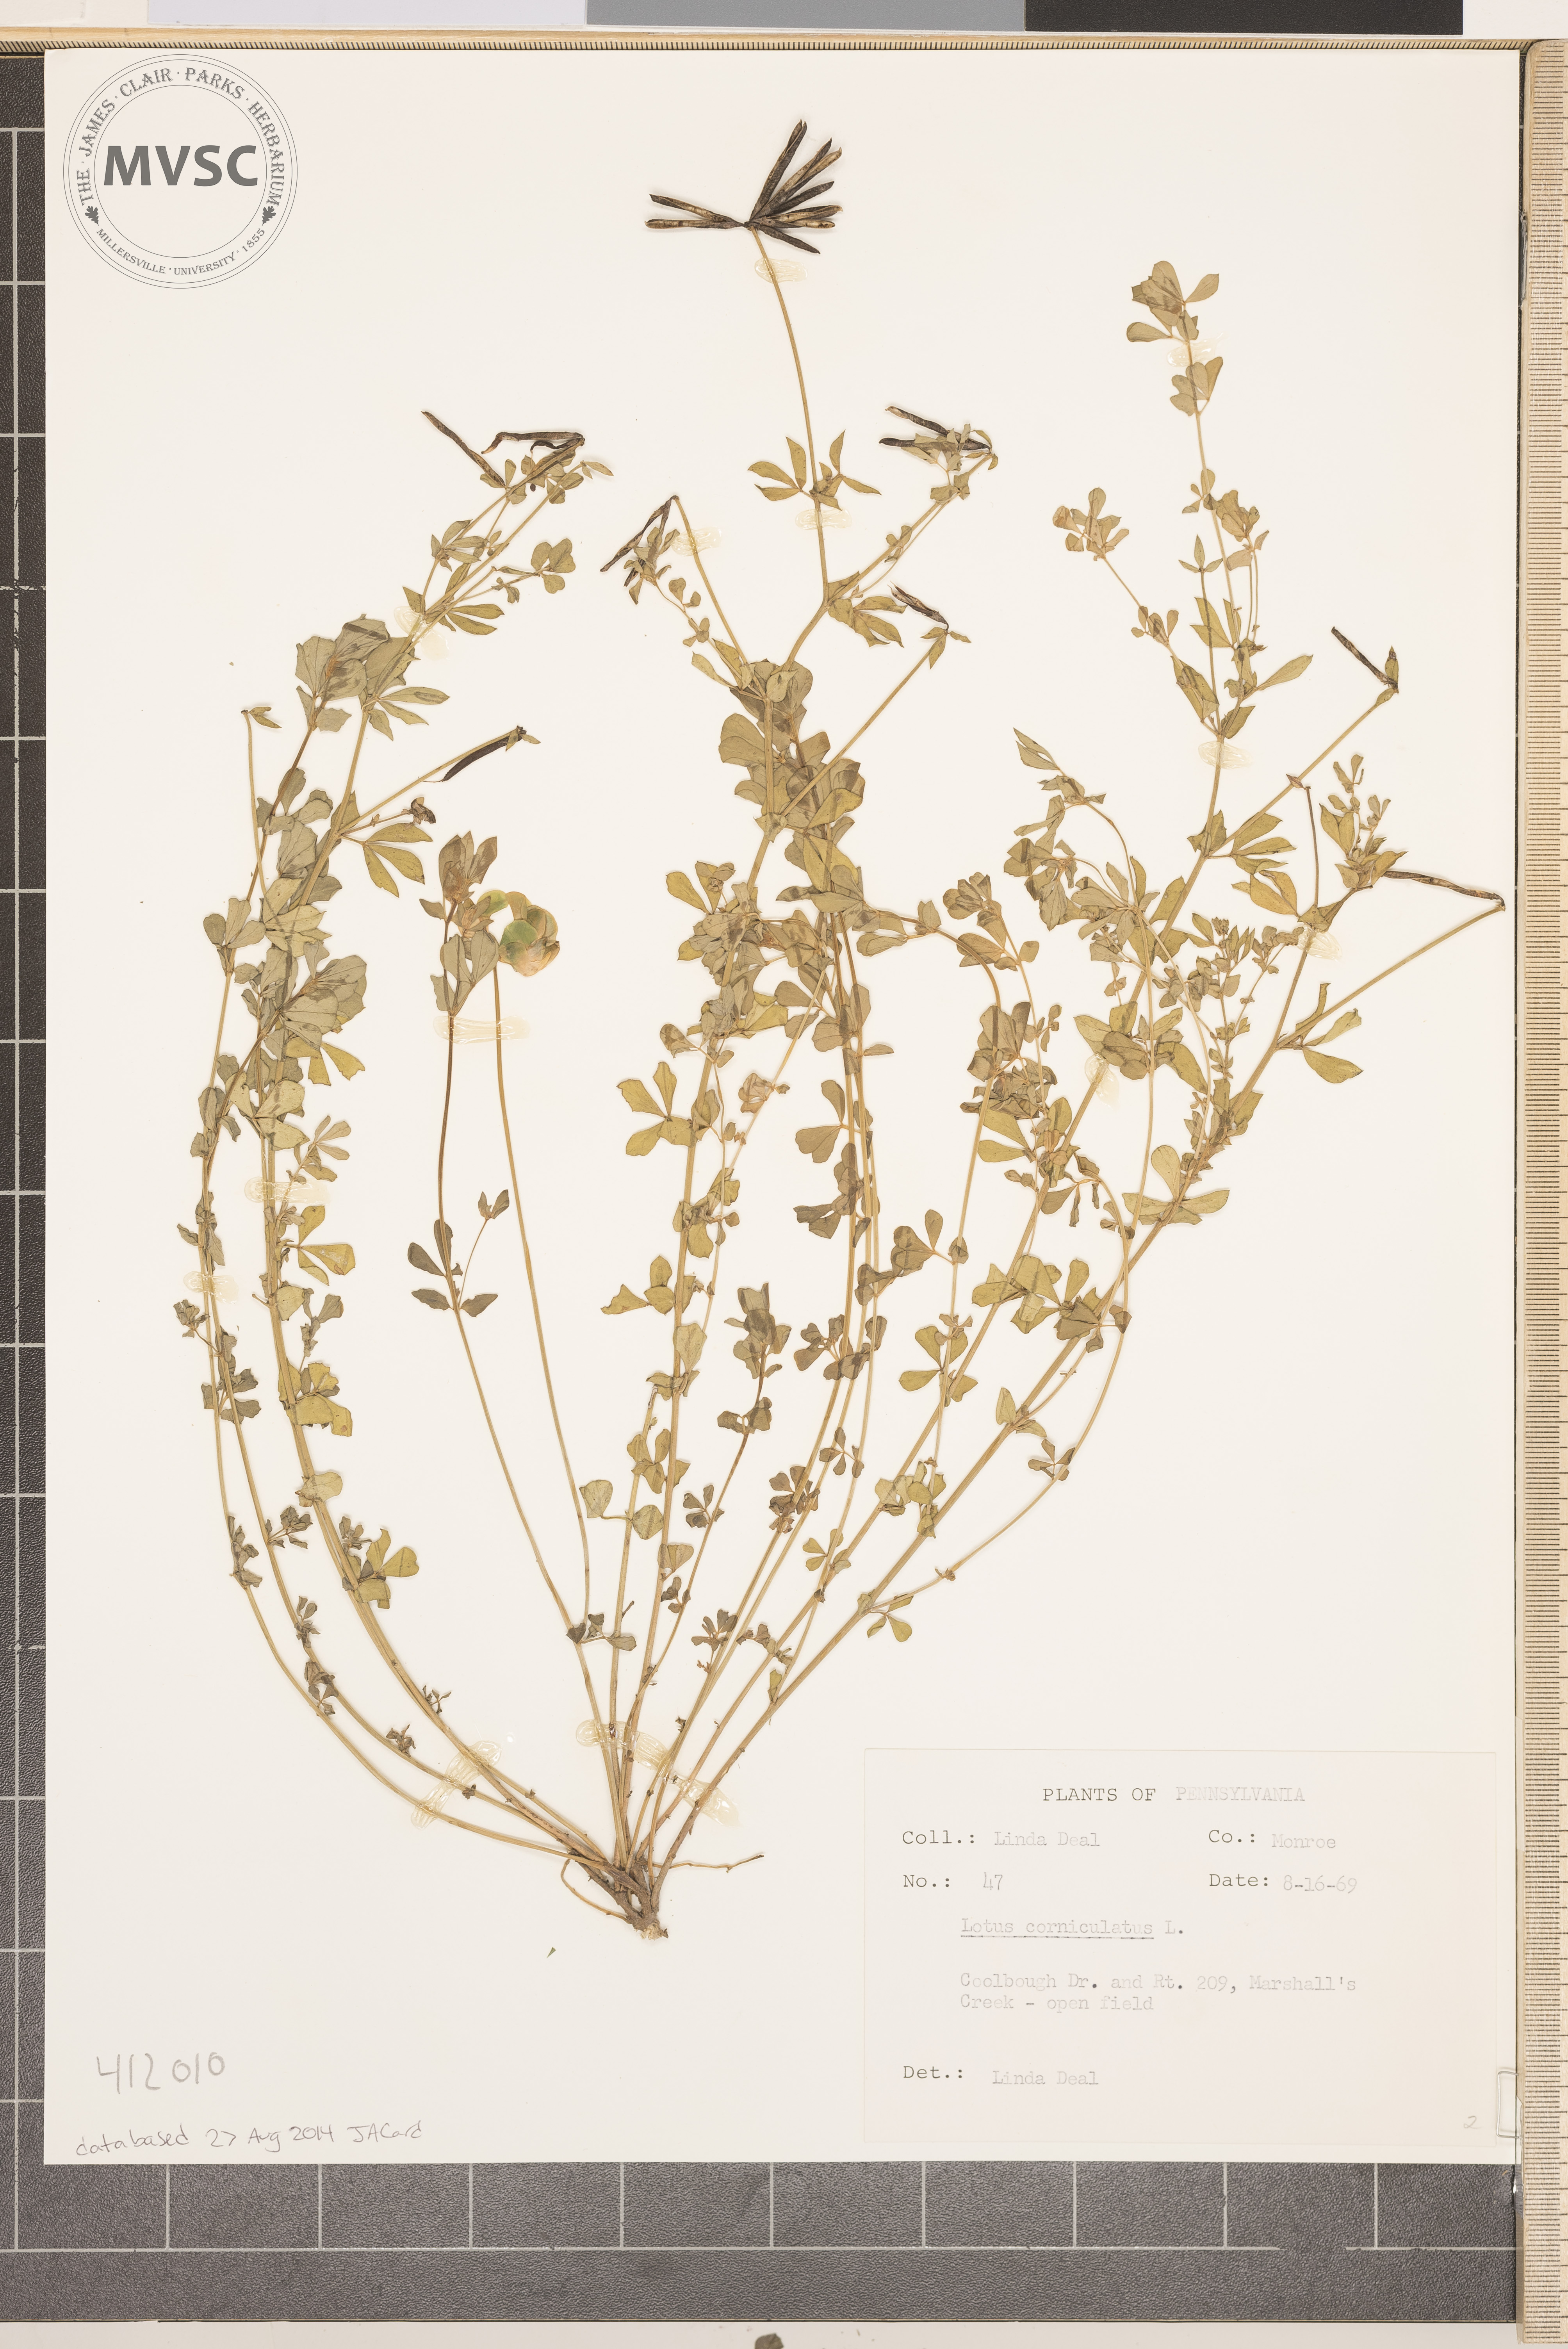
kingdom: Plantae
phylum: Tracheophyta
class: Magnoliopsida
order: Fabales
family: Fabaceae
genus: Lotus
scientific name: Lotus corniculatus
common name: Common bird's-foot-trefoil
